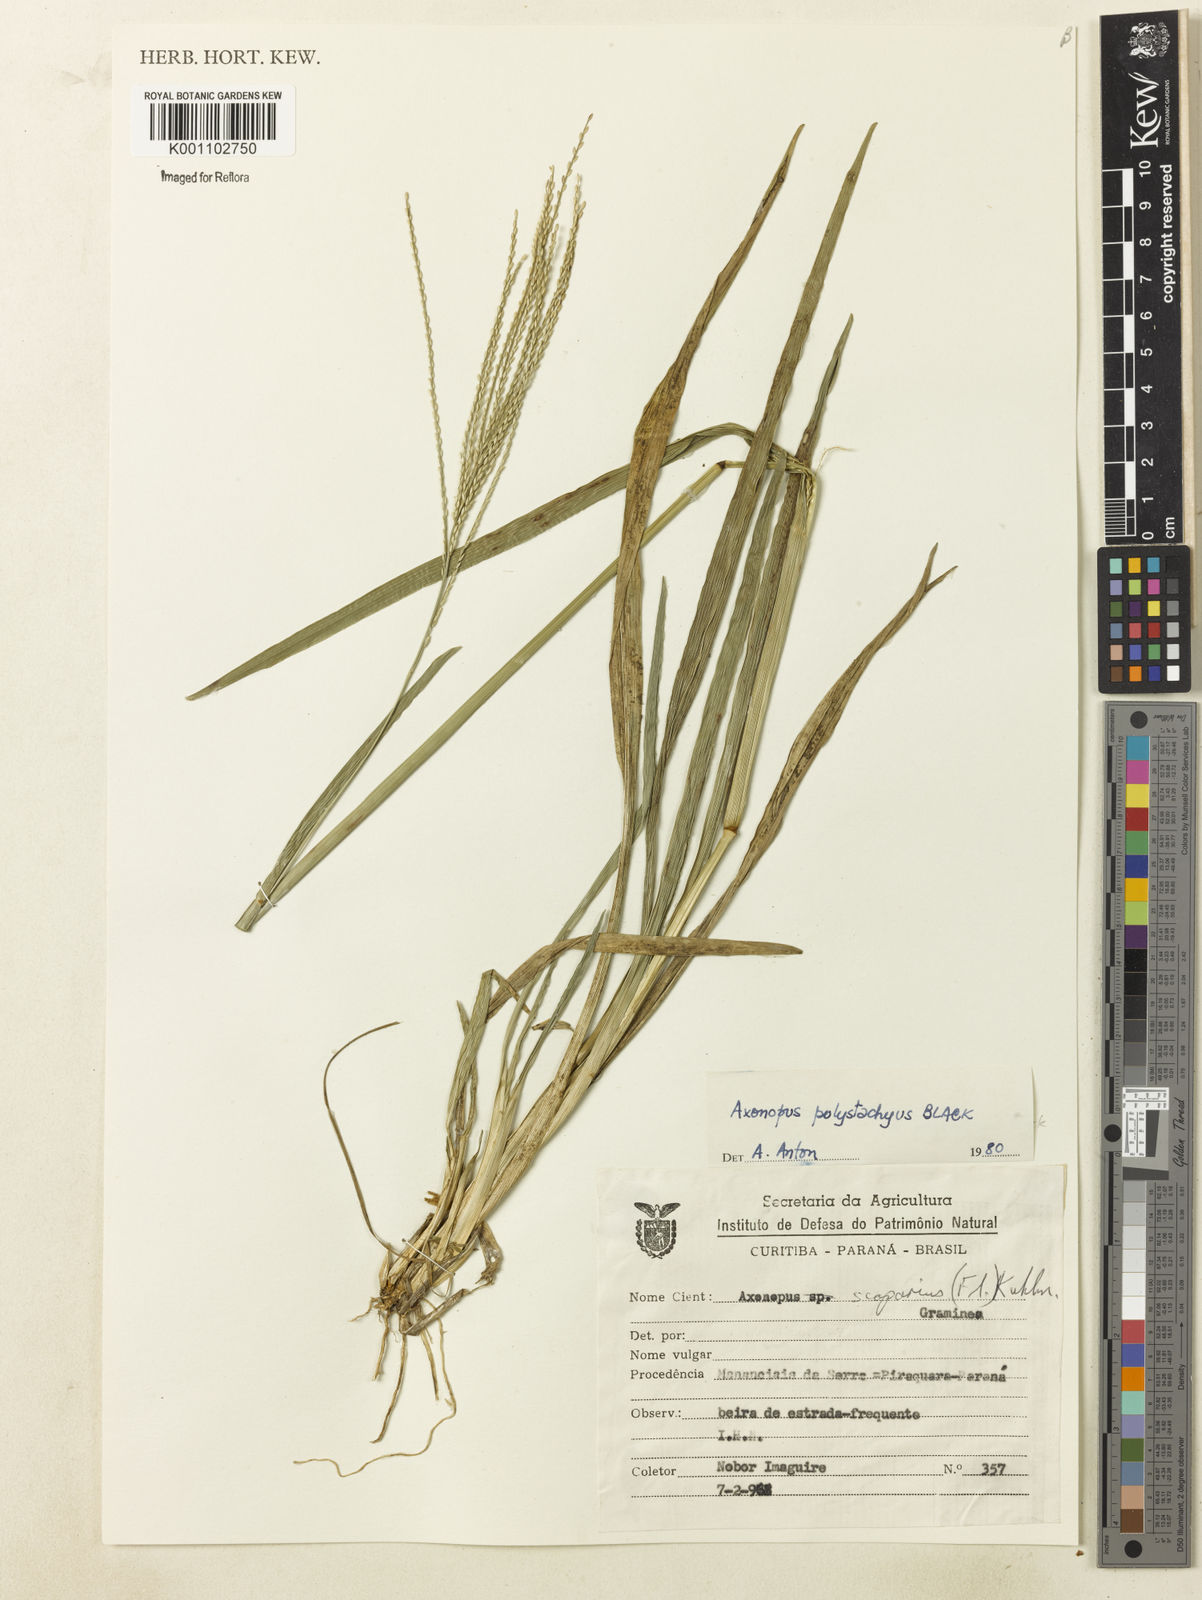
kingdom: Plantae
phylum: Tracheophyta
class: Liliopsida
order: Poales
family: Poaceae
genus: Axonopus
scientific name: Axonopus polystachyus
